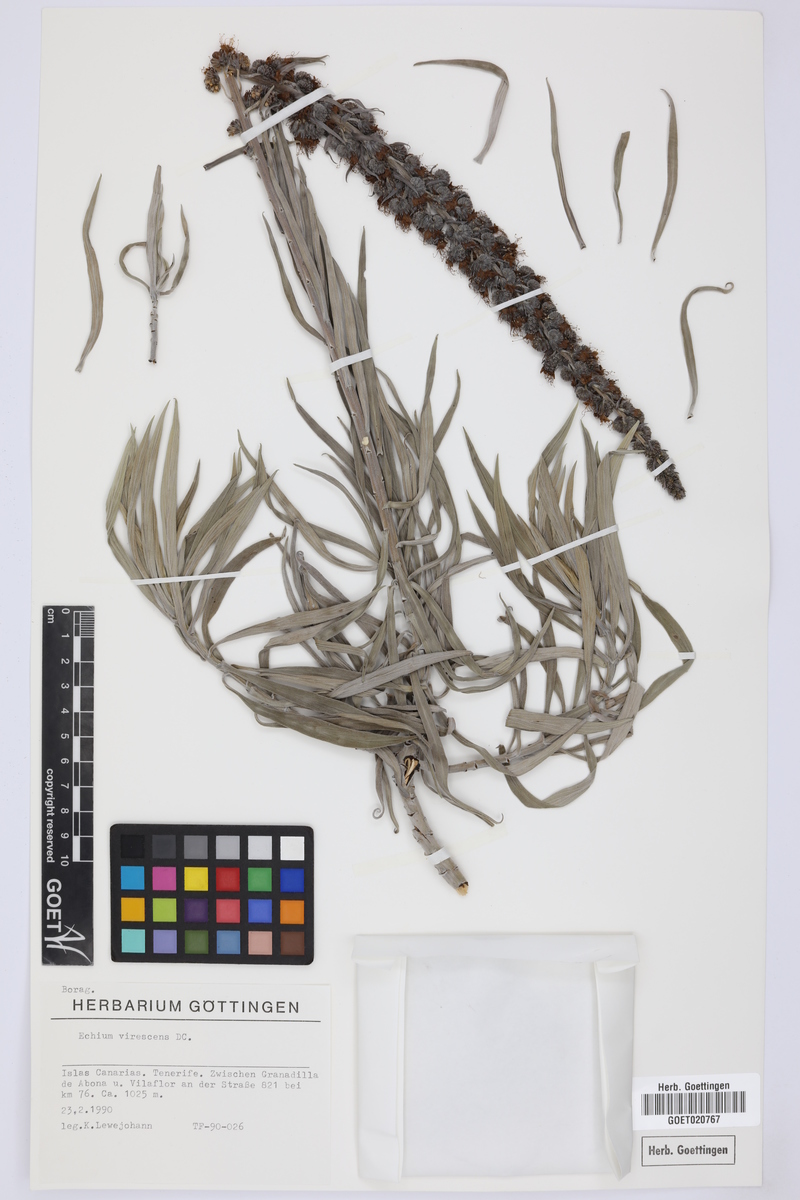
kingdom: Plantae
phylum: Tracheophyta
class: Magnoliopsida
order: Boraginales
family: Boraginaceae
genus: Echium
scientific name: Echium virescens
